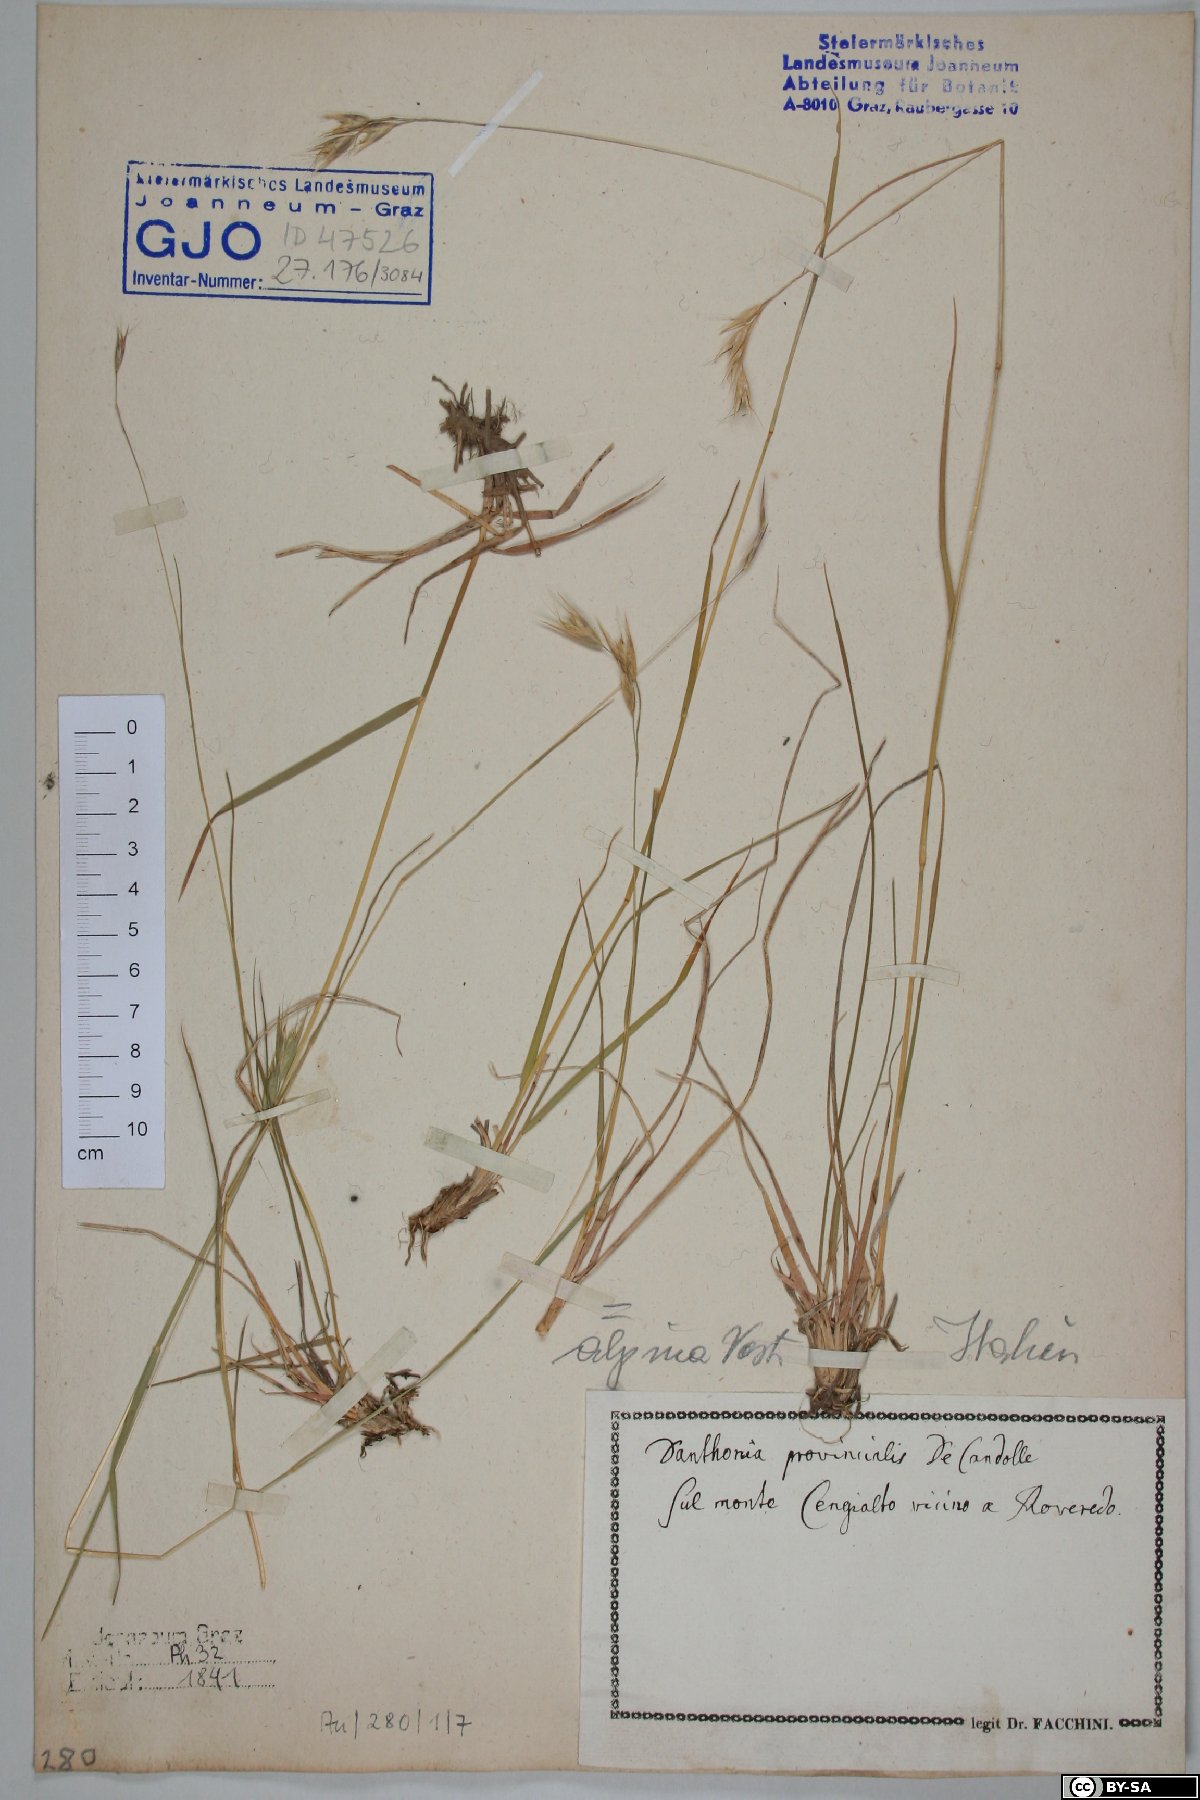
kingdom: Plantae
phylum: Tracheophyta
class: Liliopsida
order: Poales
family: Poaceae
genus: Danthonia
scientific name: Danthonia alpina
